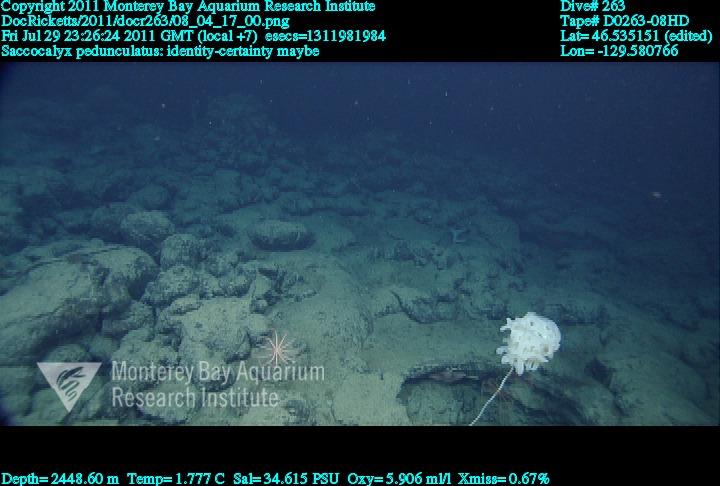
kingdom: Animalia
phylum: Porifera
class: Hexactinellida
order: Lyssacinosida
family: Euplectellidae
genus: Saccocalyx
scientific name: Saccocalyx pedunculatus
